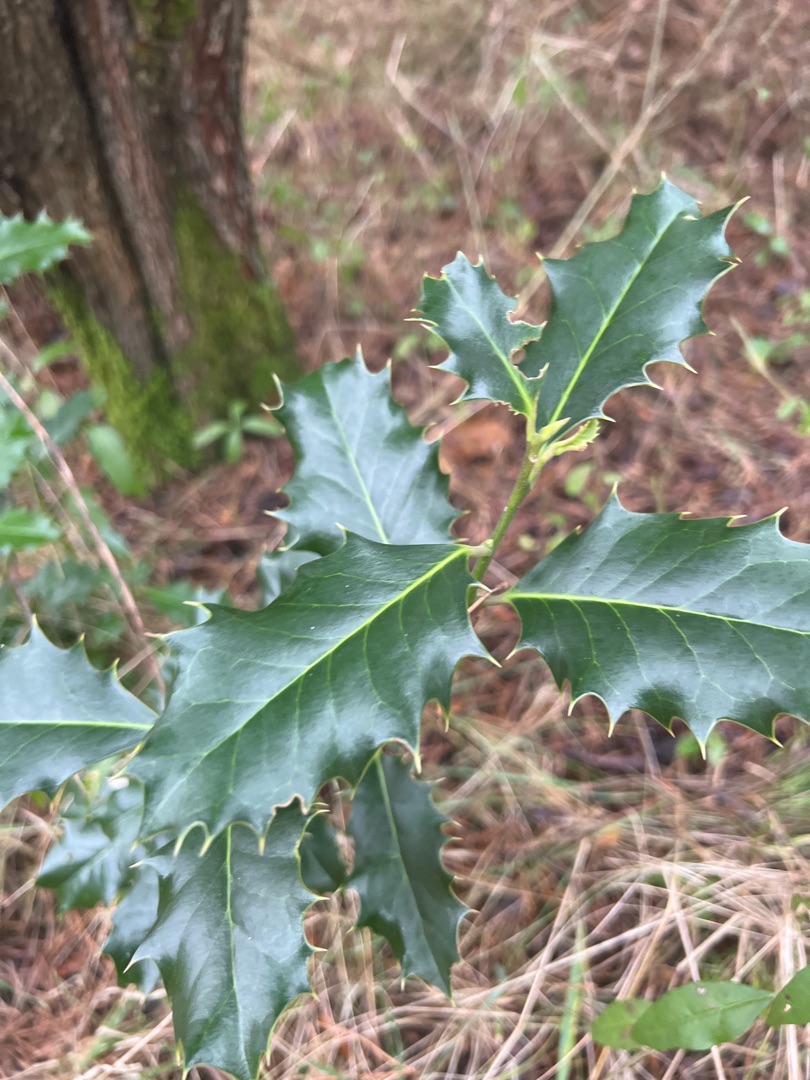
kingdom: Plantae
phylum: Tracheophyta
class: Magnoliopsida
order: Aquifoliales
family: Aquifoliaceae
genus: Ilex
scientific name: Ilex aquifolium
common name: Kristtorn
